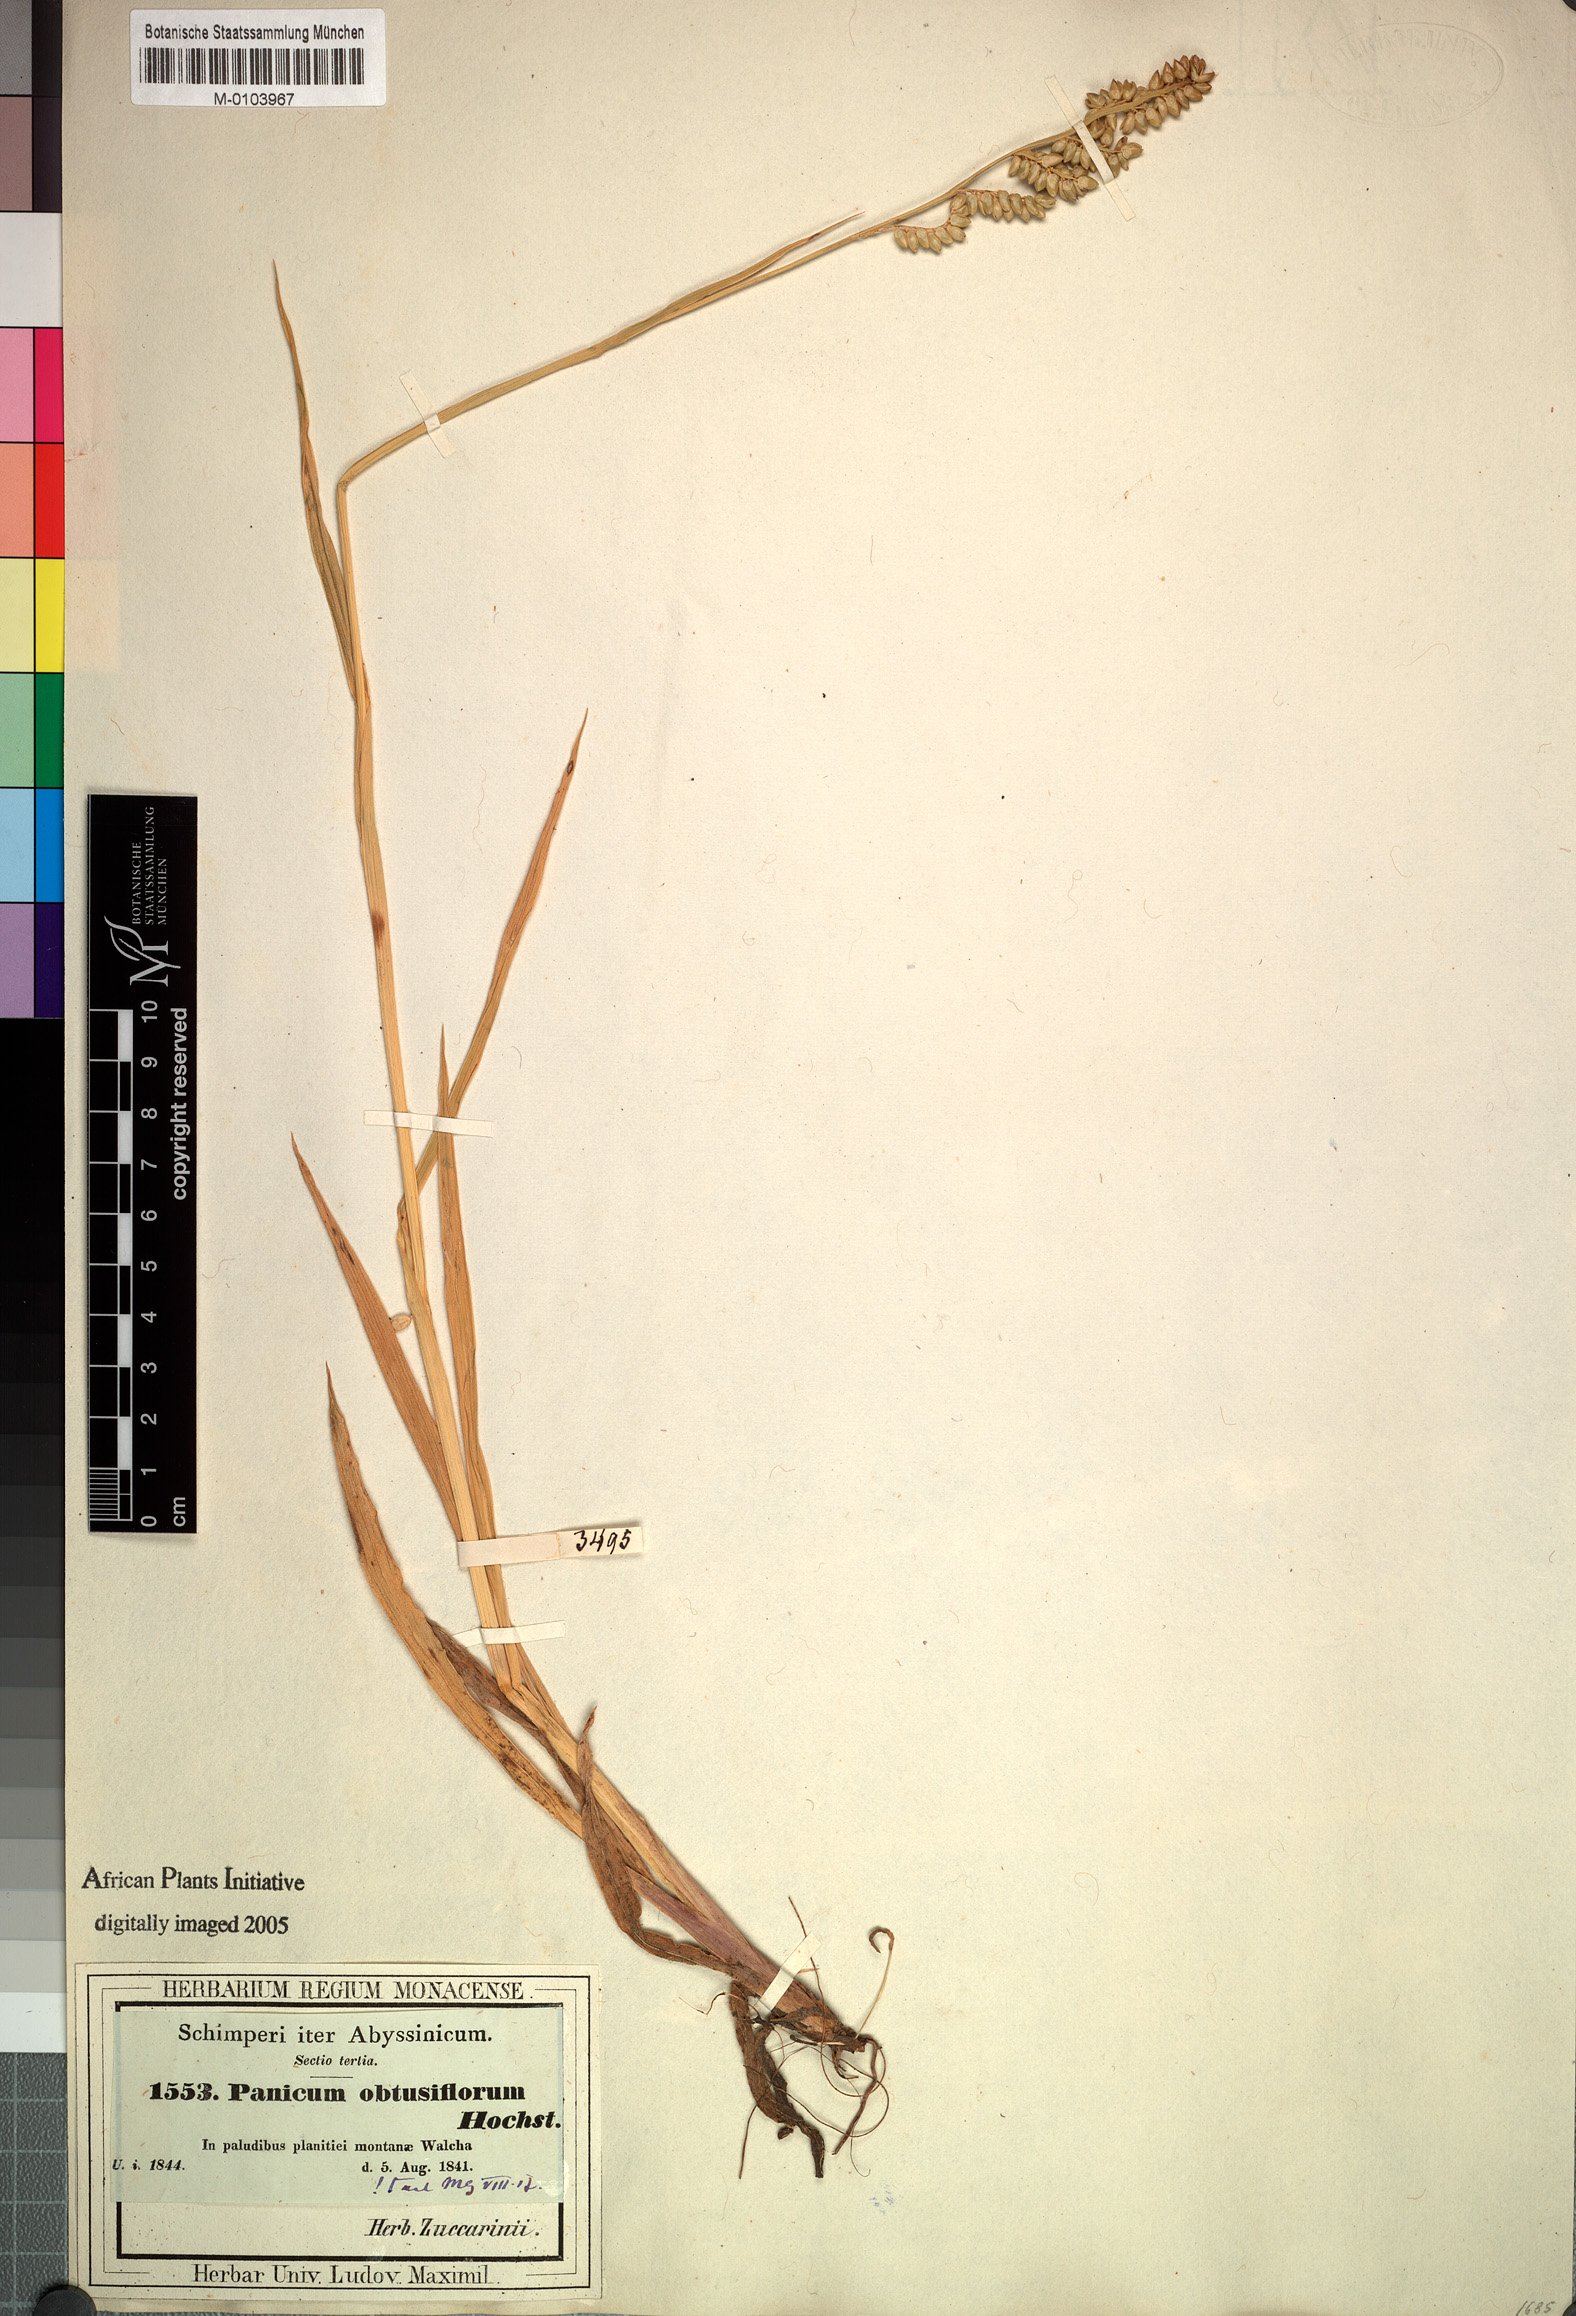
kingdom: Plantae
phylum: Tracheophyta
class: Liliopsida
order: Poales
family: Poaceae
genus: Echinochloa
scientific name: Echinochloa rotundiflora
